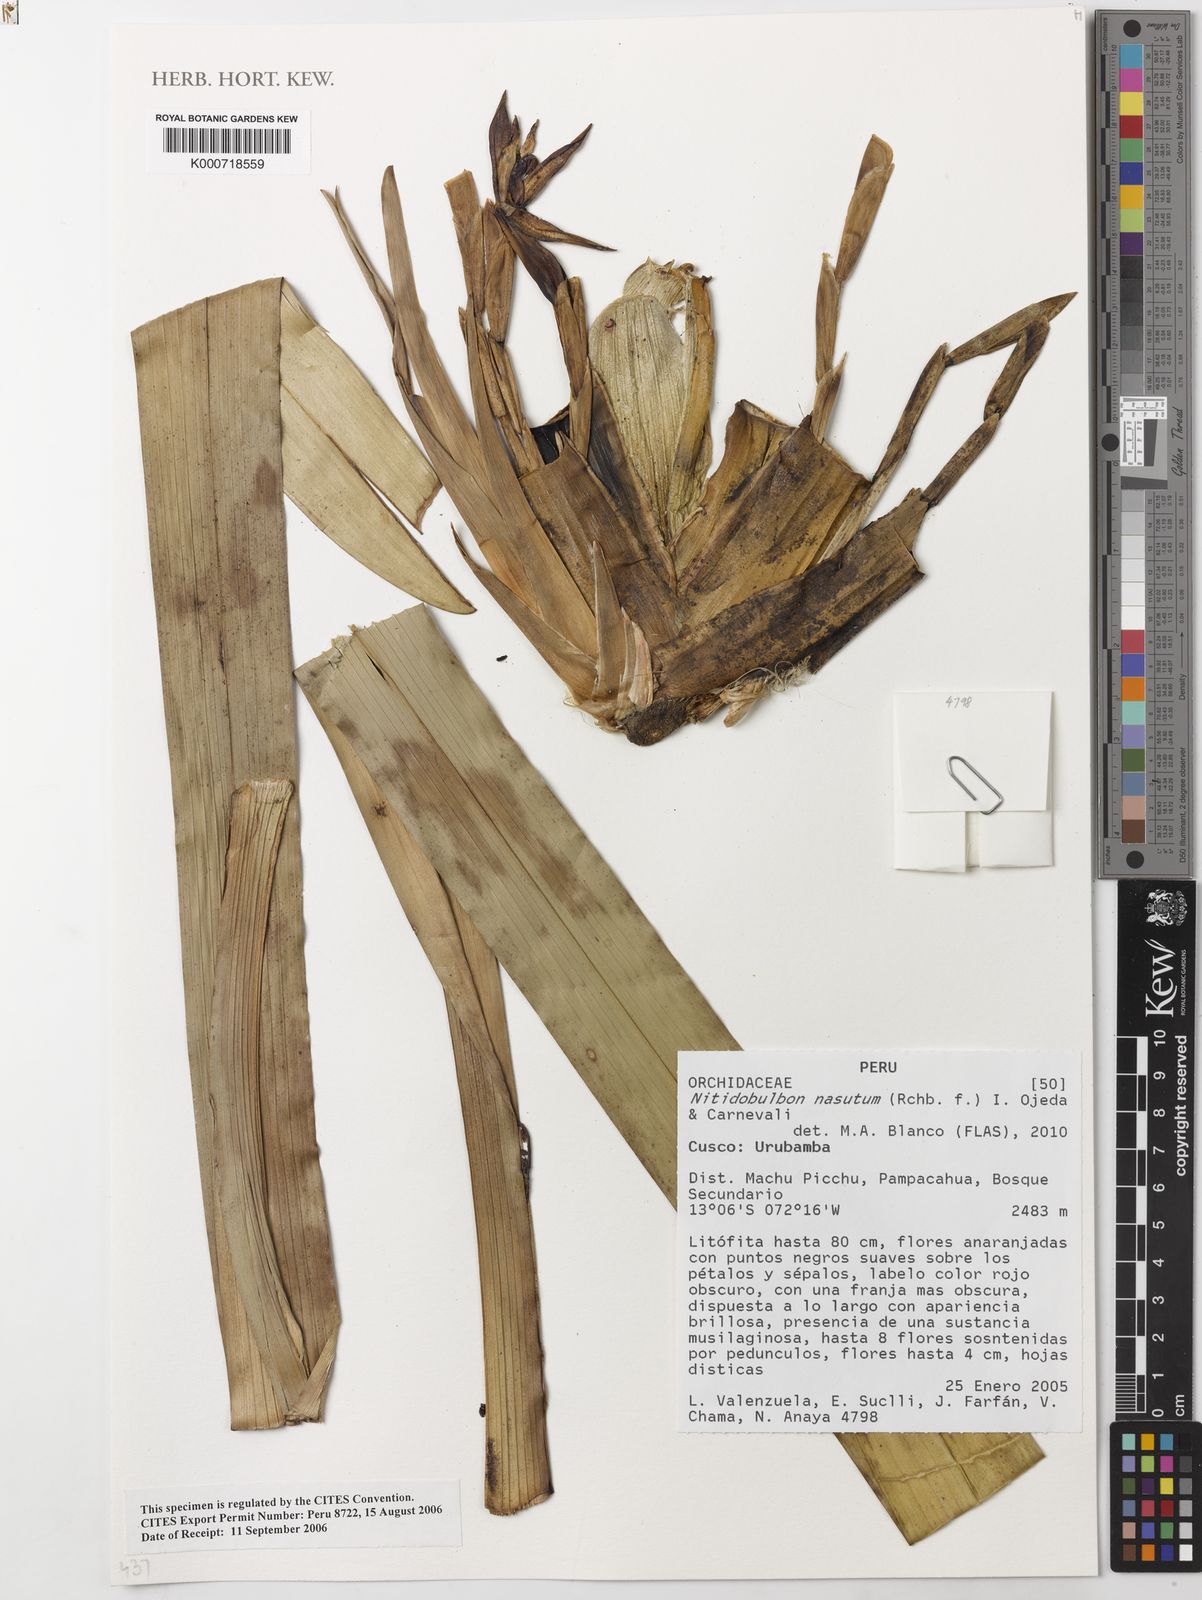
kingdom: Plantae
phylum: Tracheophyta
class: Liliopsida
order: Asparagales
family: Orchidaceae
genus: Maxillaria
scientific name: Maxillaria nasuta
